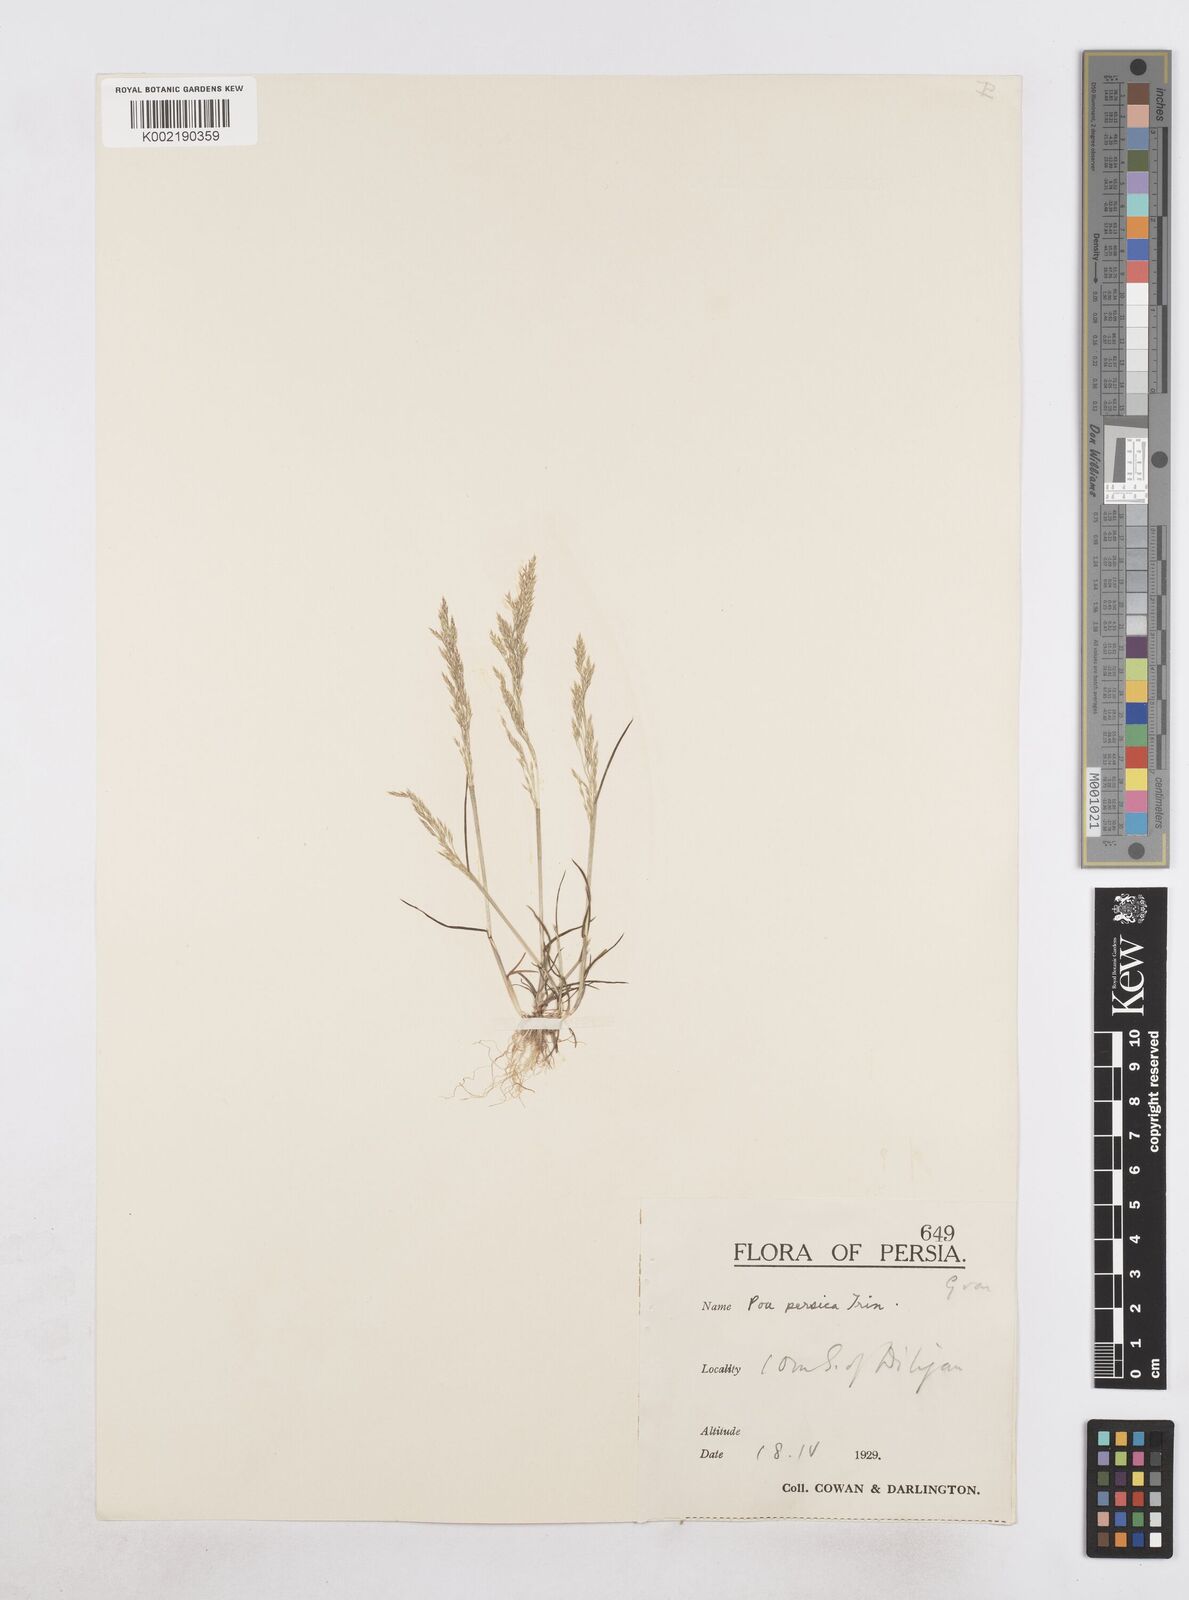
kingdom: Plantae
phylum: Tracheophyta
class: Liliopsida
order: Poales
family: Poaceae
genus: Poa
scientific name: Poa persica
